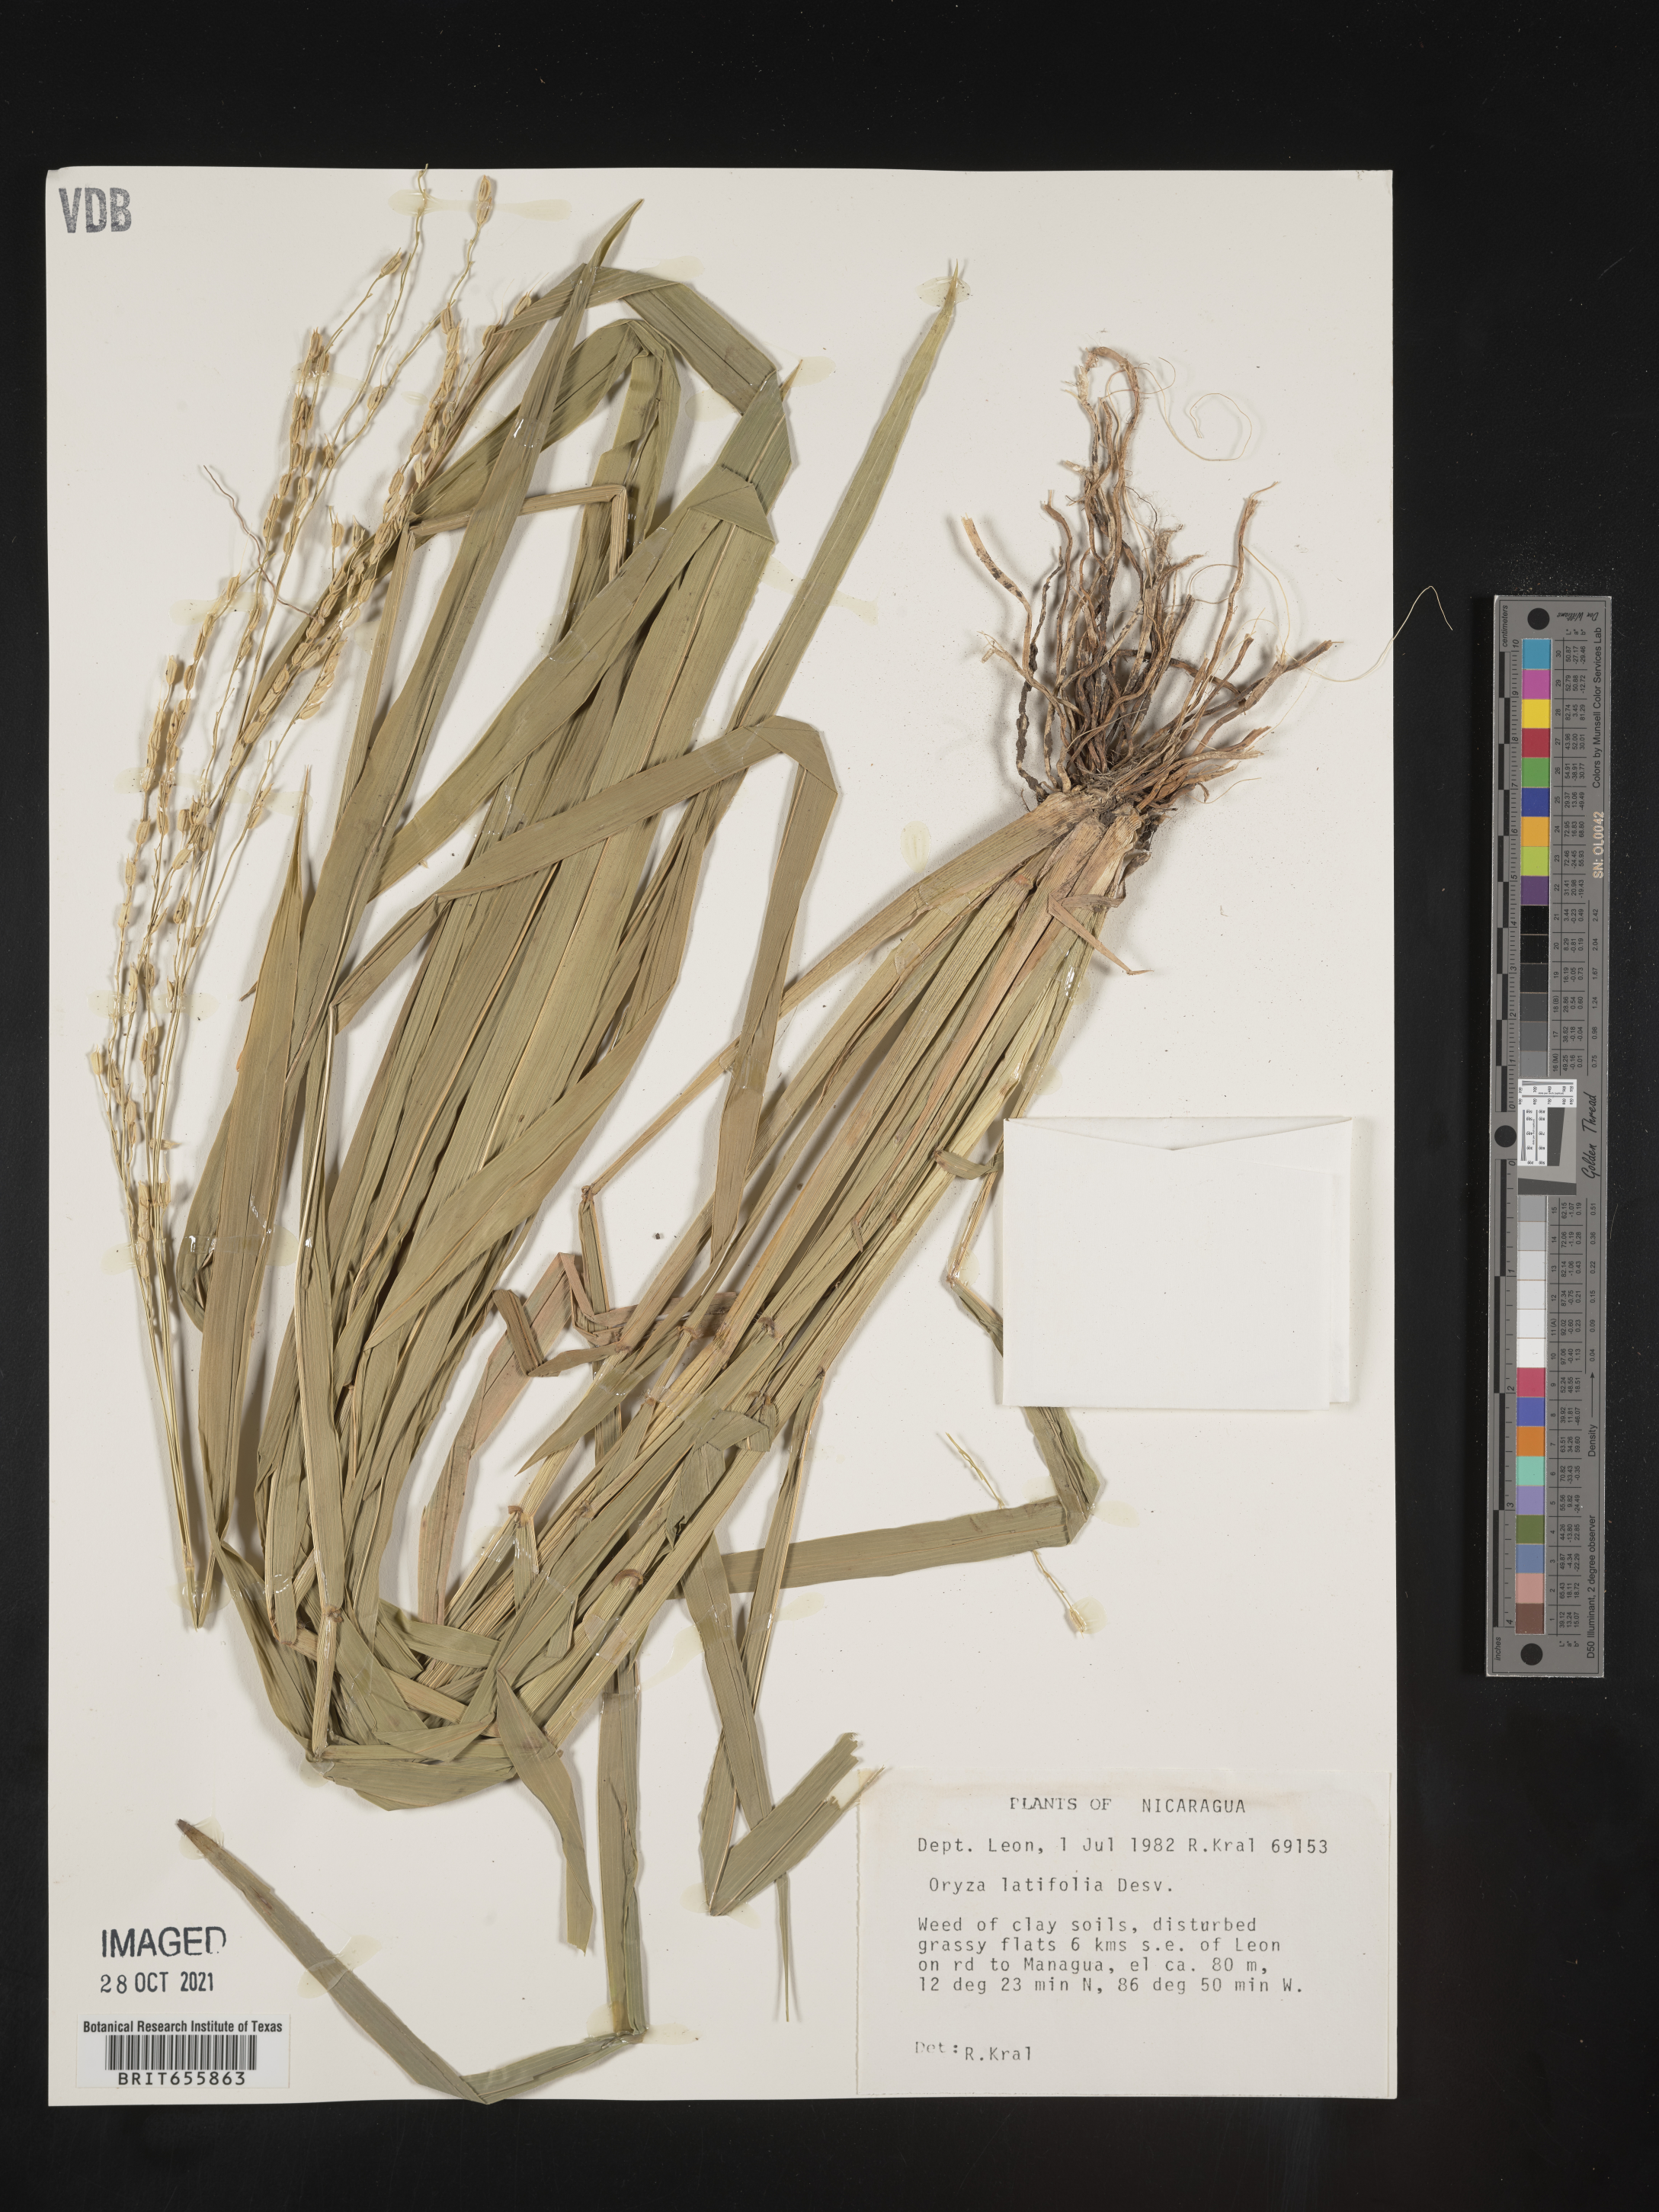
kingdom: Plantae
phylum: Tracheophyta
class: Liliopsida
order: Poales
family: Poaceae
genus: Oryza
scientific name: Oryza
